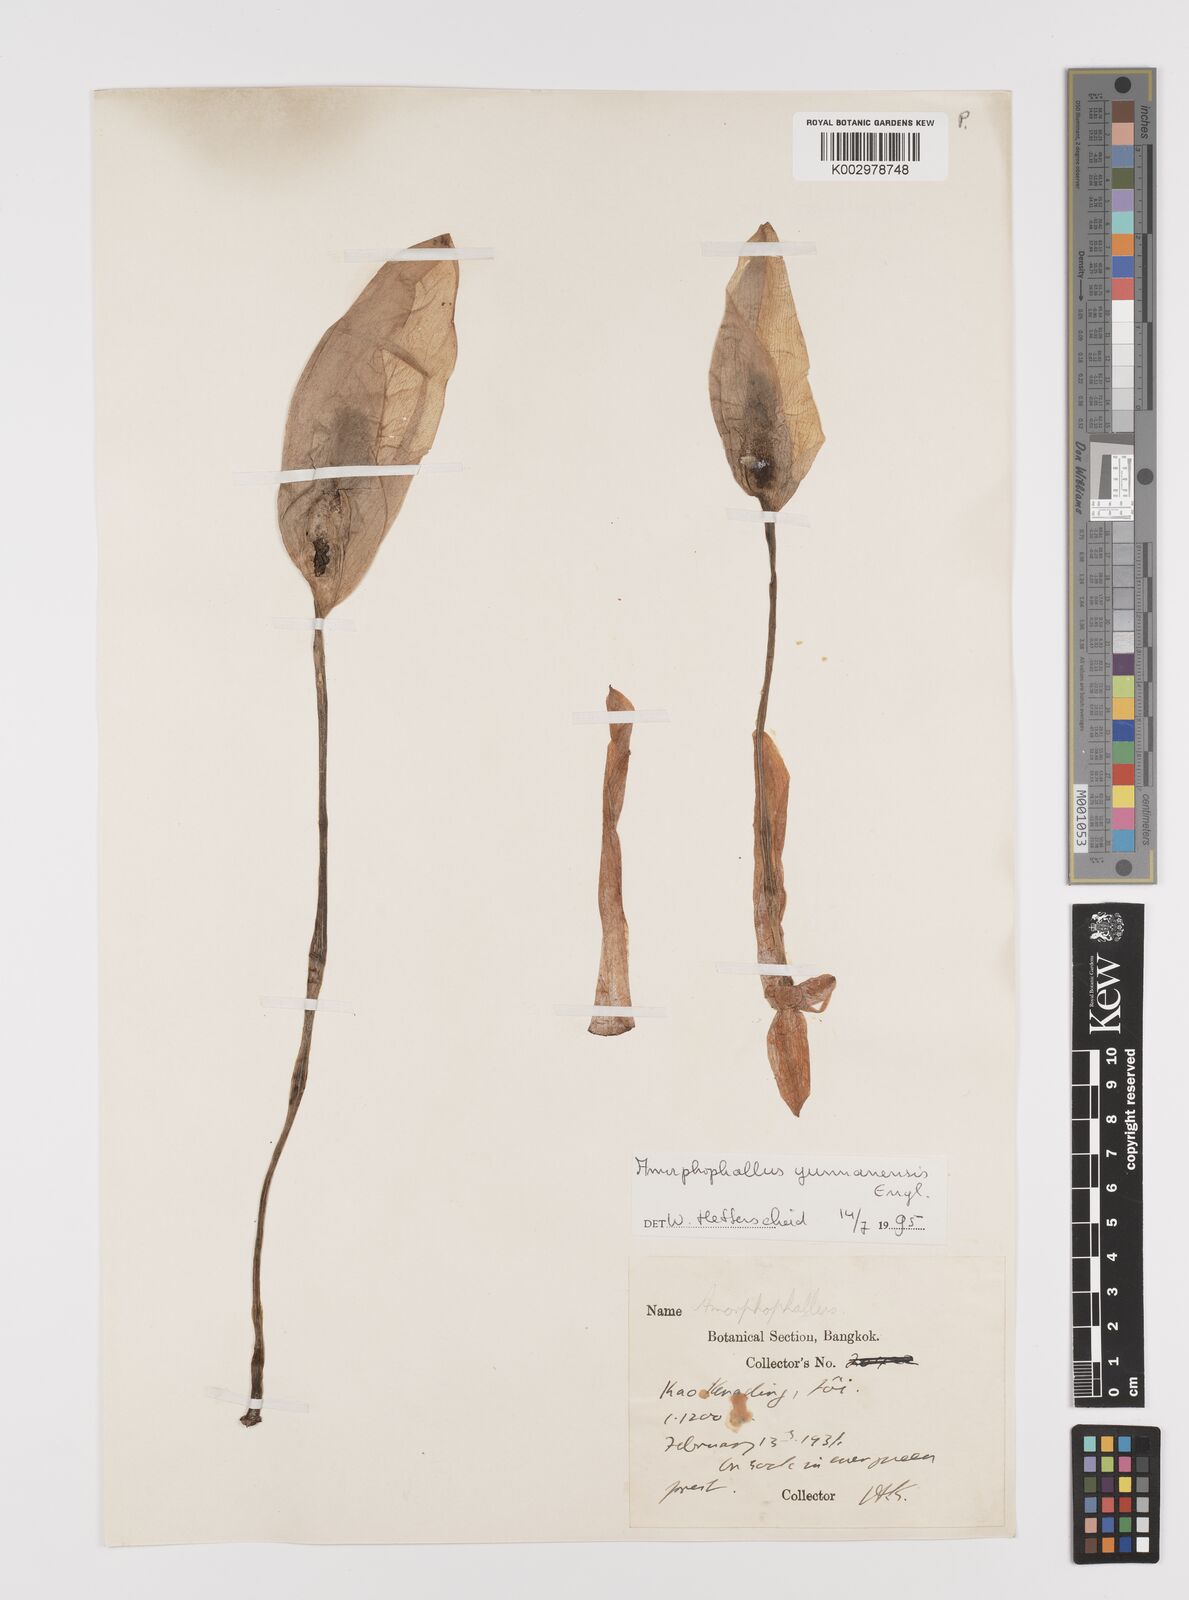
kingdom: Plantae
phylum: Tracheophyta
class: Liliopsida
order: Alismatales
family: Araceae
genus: Amorphophallus
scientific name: Amorphophallus yunnanensis
